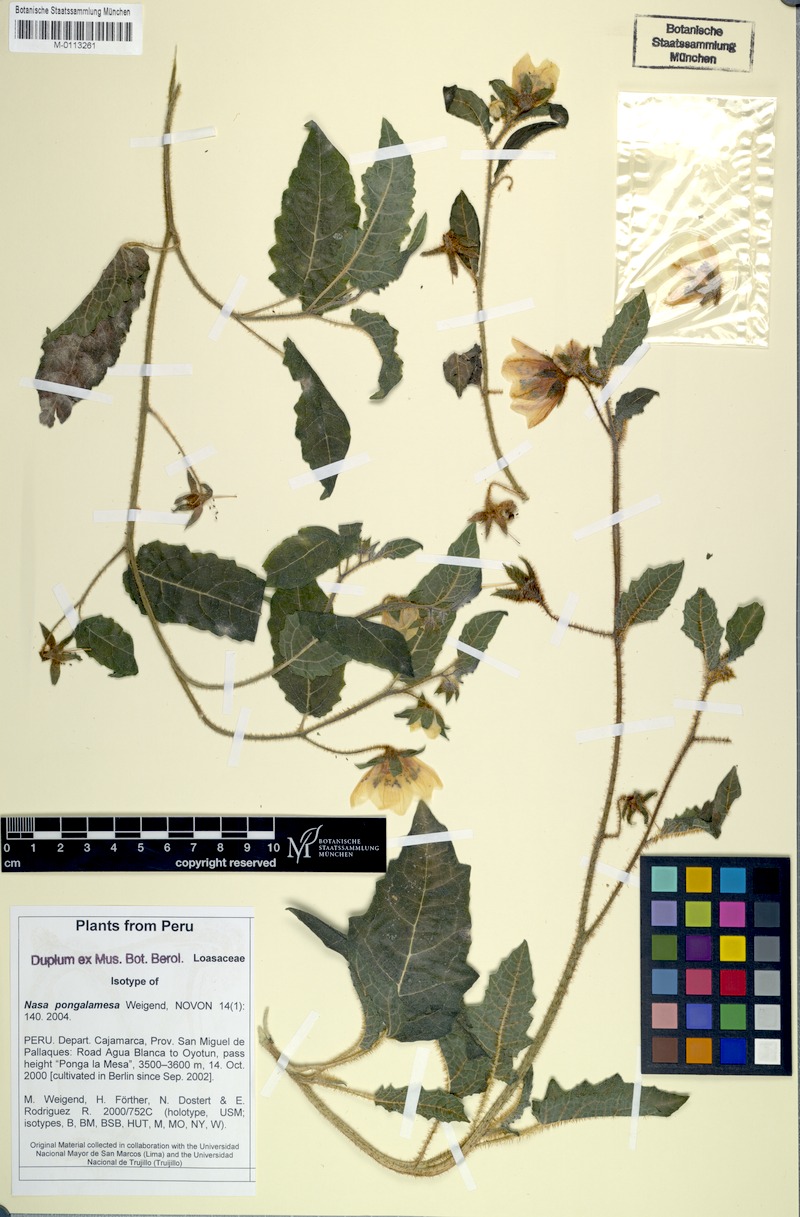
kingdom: Plantae
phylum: Tracheophyta
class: Magnoliopsida
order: Cornales
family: Loasaceae
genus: Nasa
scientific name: Nasa pongalamesa
